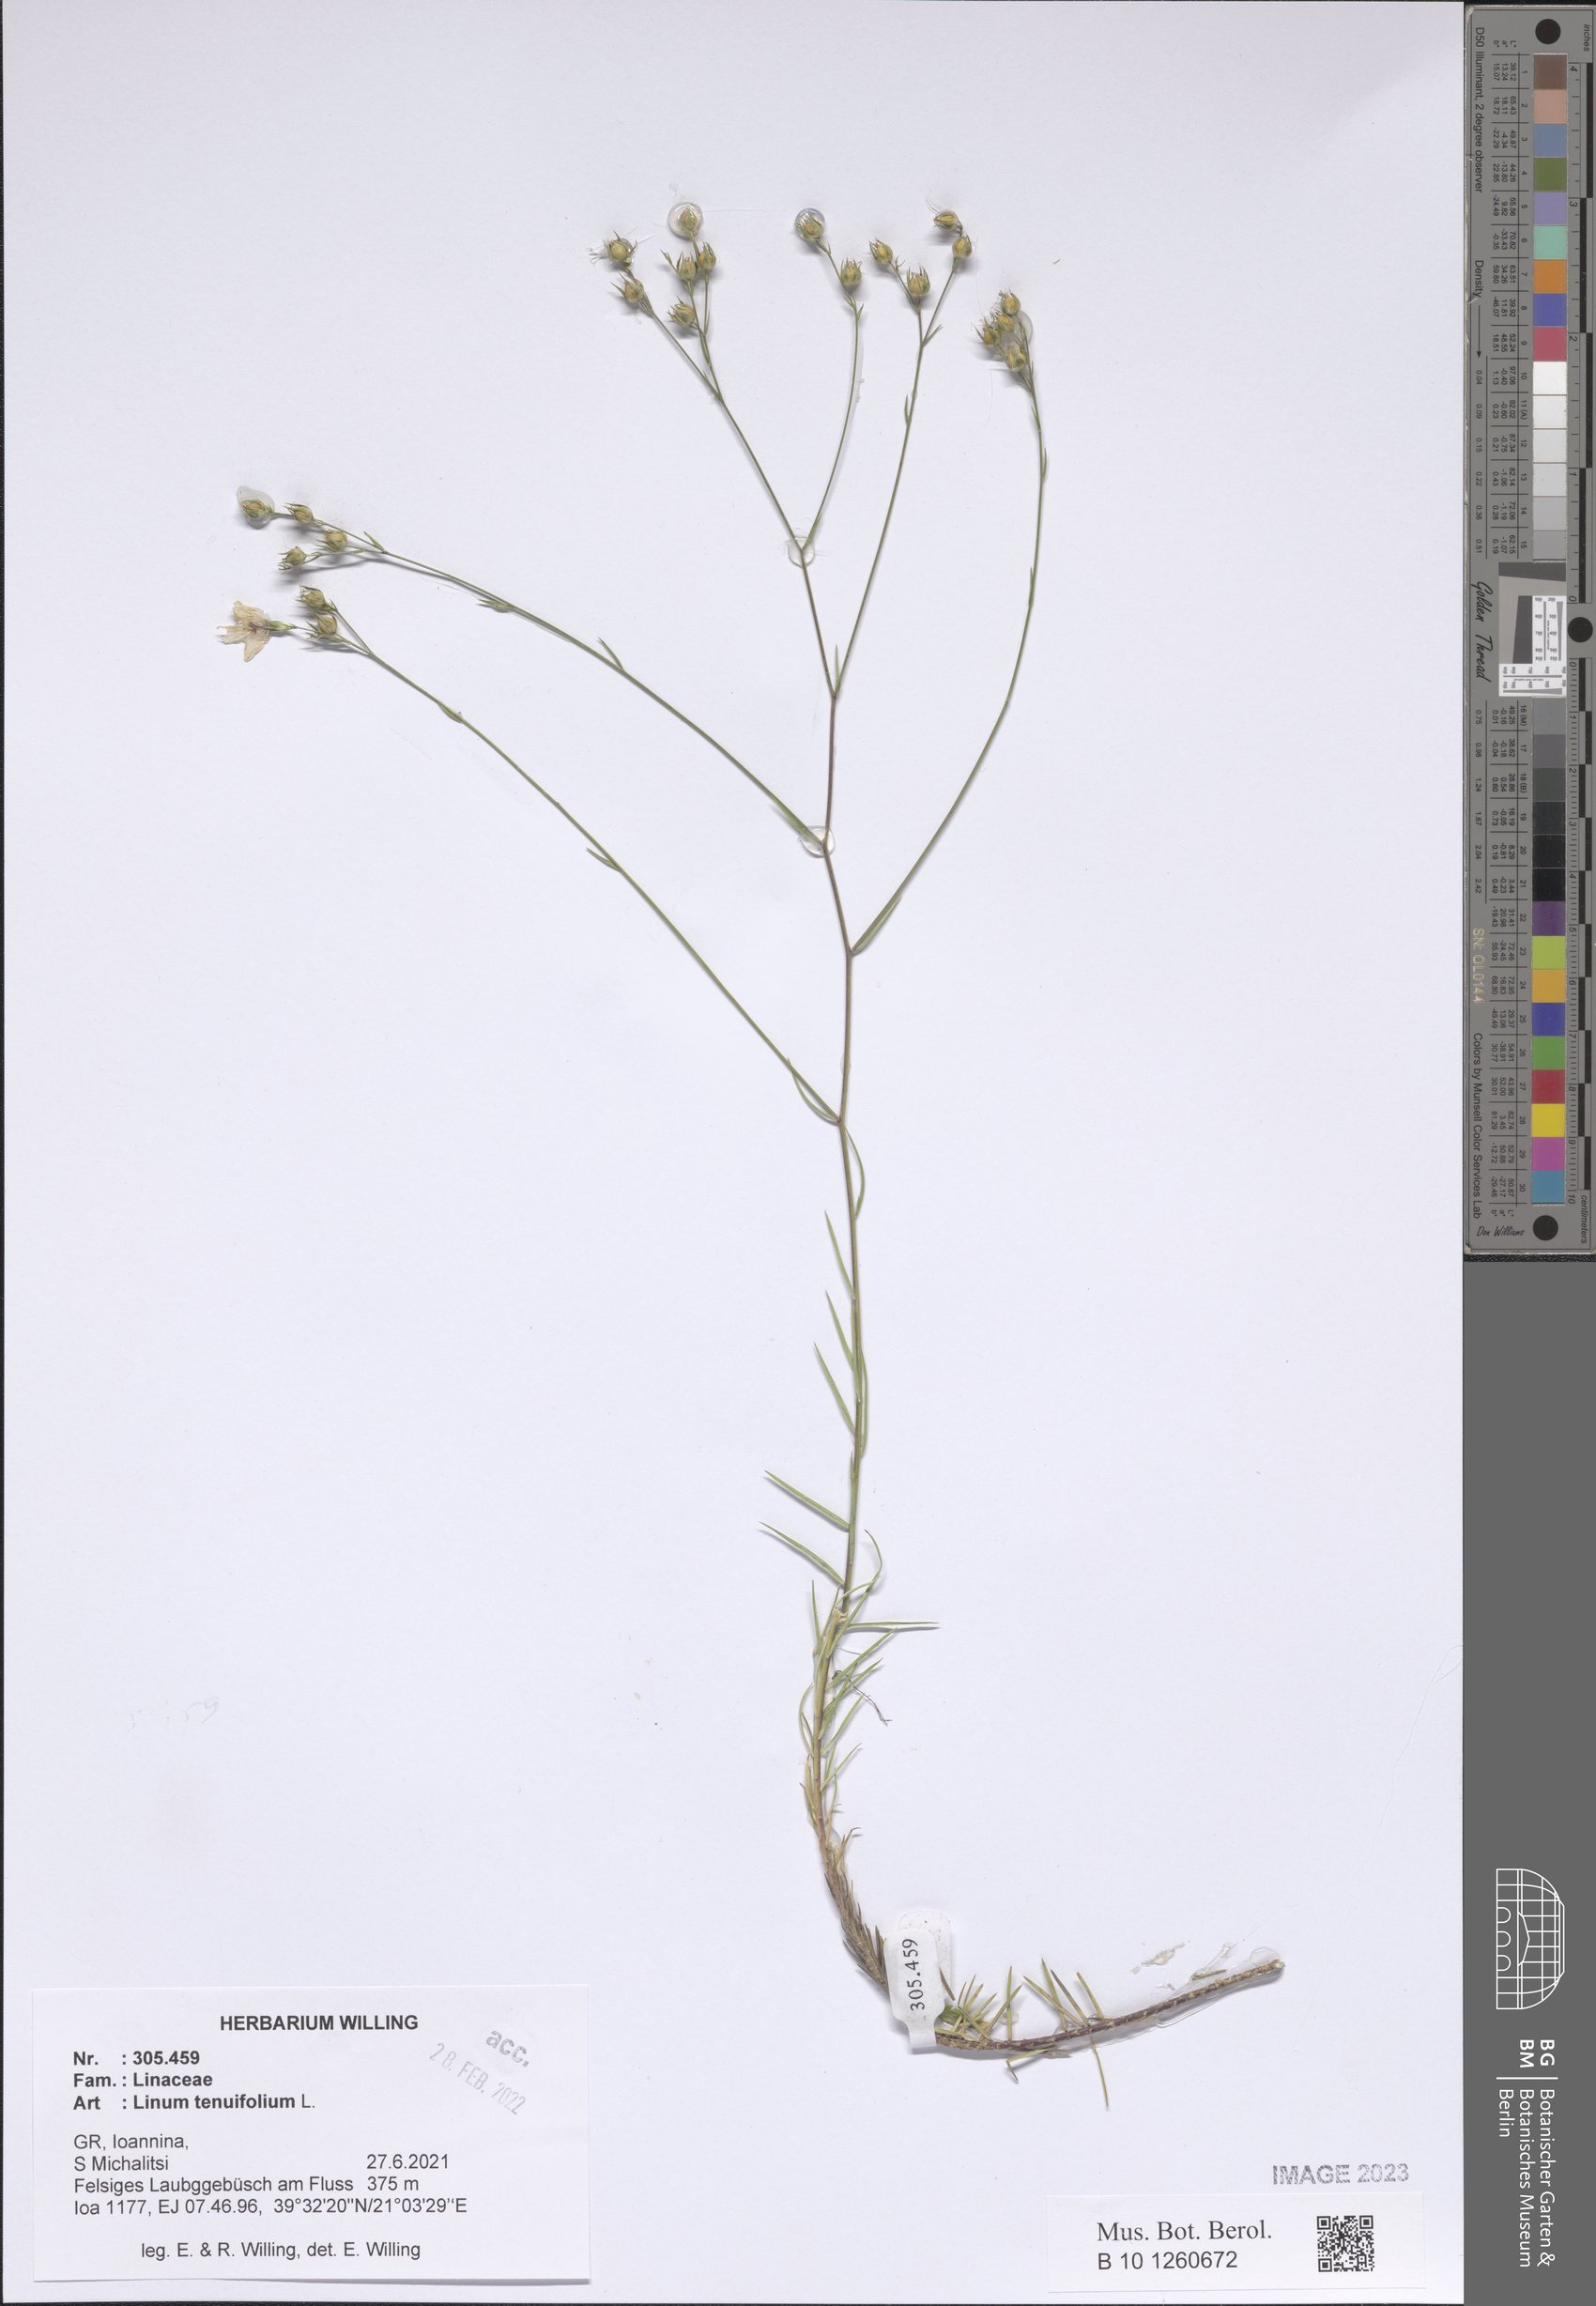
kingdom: Plantae
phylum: Tracheophyta
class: Magnoliopsida
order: Malpighiales
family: Linaceae
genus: Linum
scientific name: Linum tenuifolium
